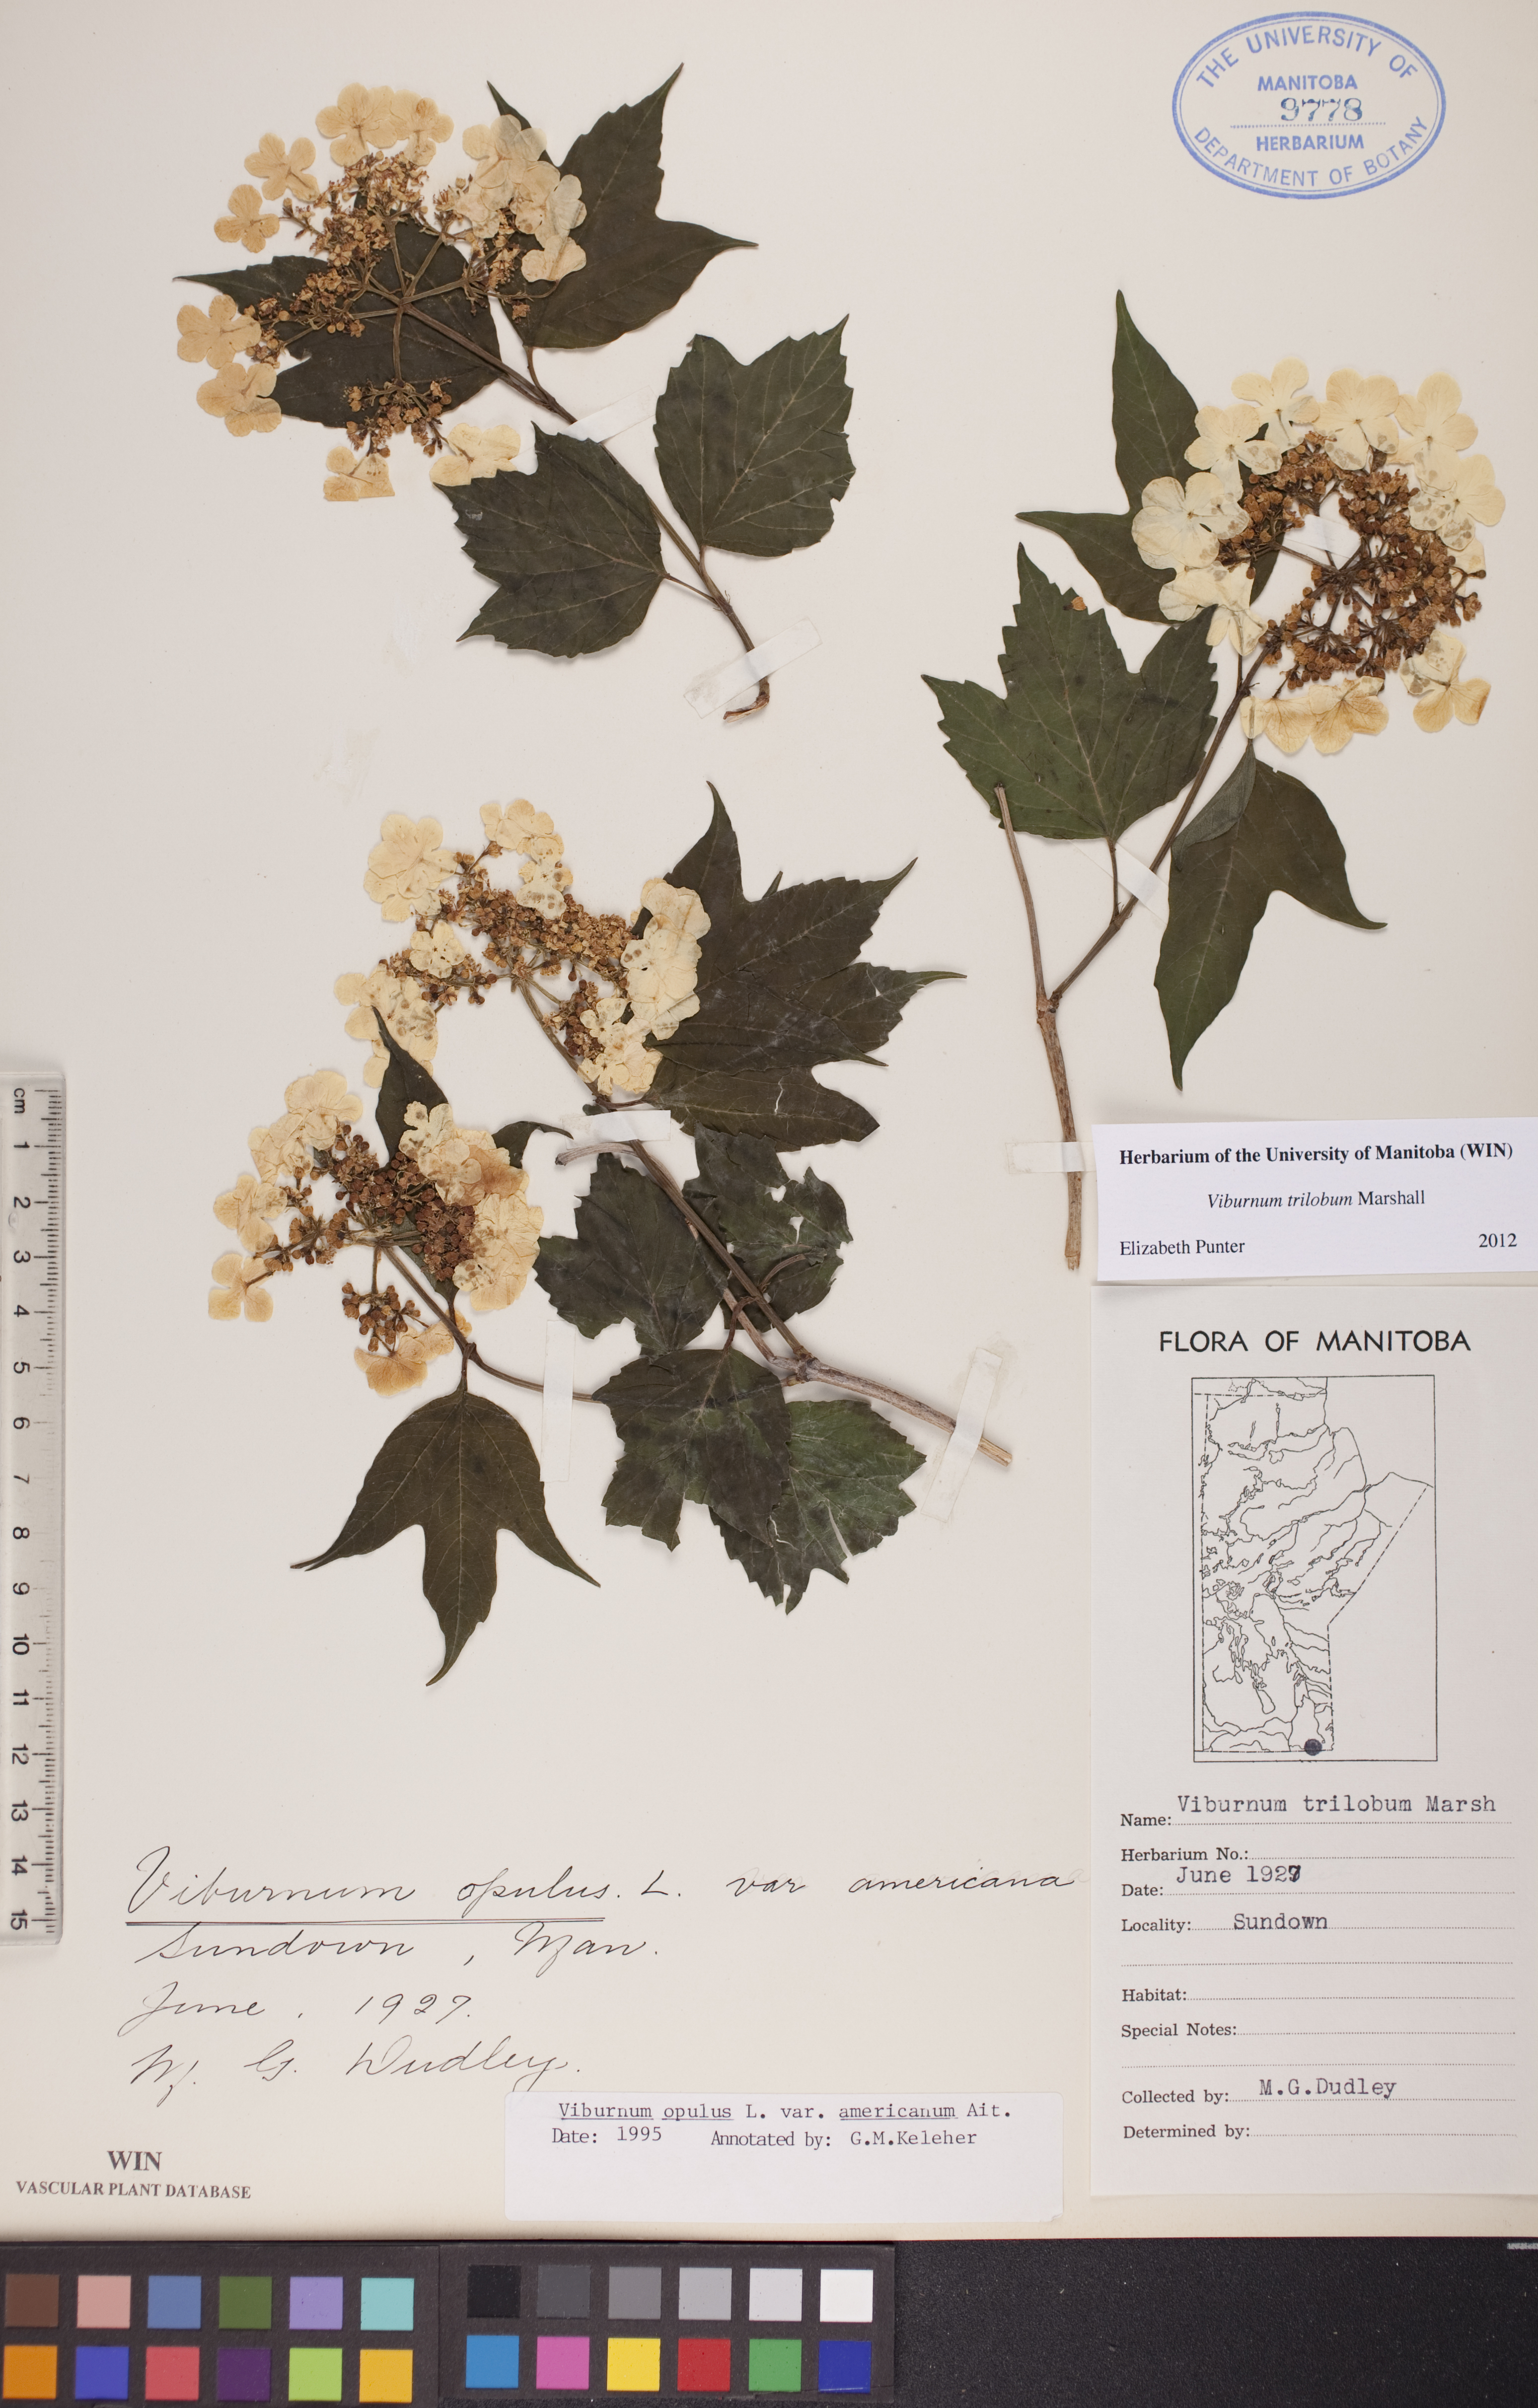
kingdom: Plantae
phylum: Tracheophyta
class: Magnoliopsida
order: Dipsacales
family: Viburnaceae
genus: Viburnum
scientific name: Viburnum trilobum
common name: American cranberrybush
